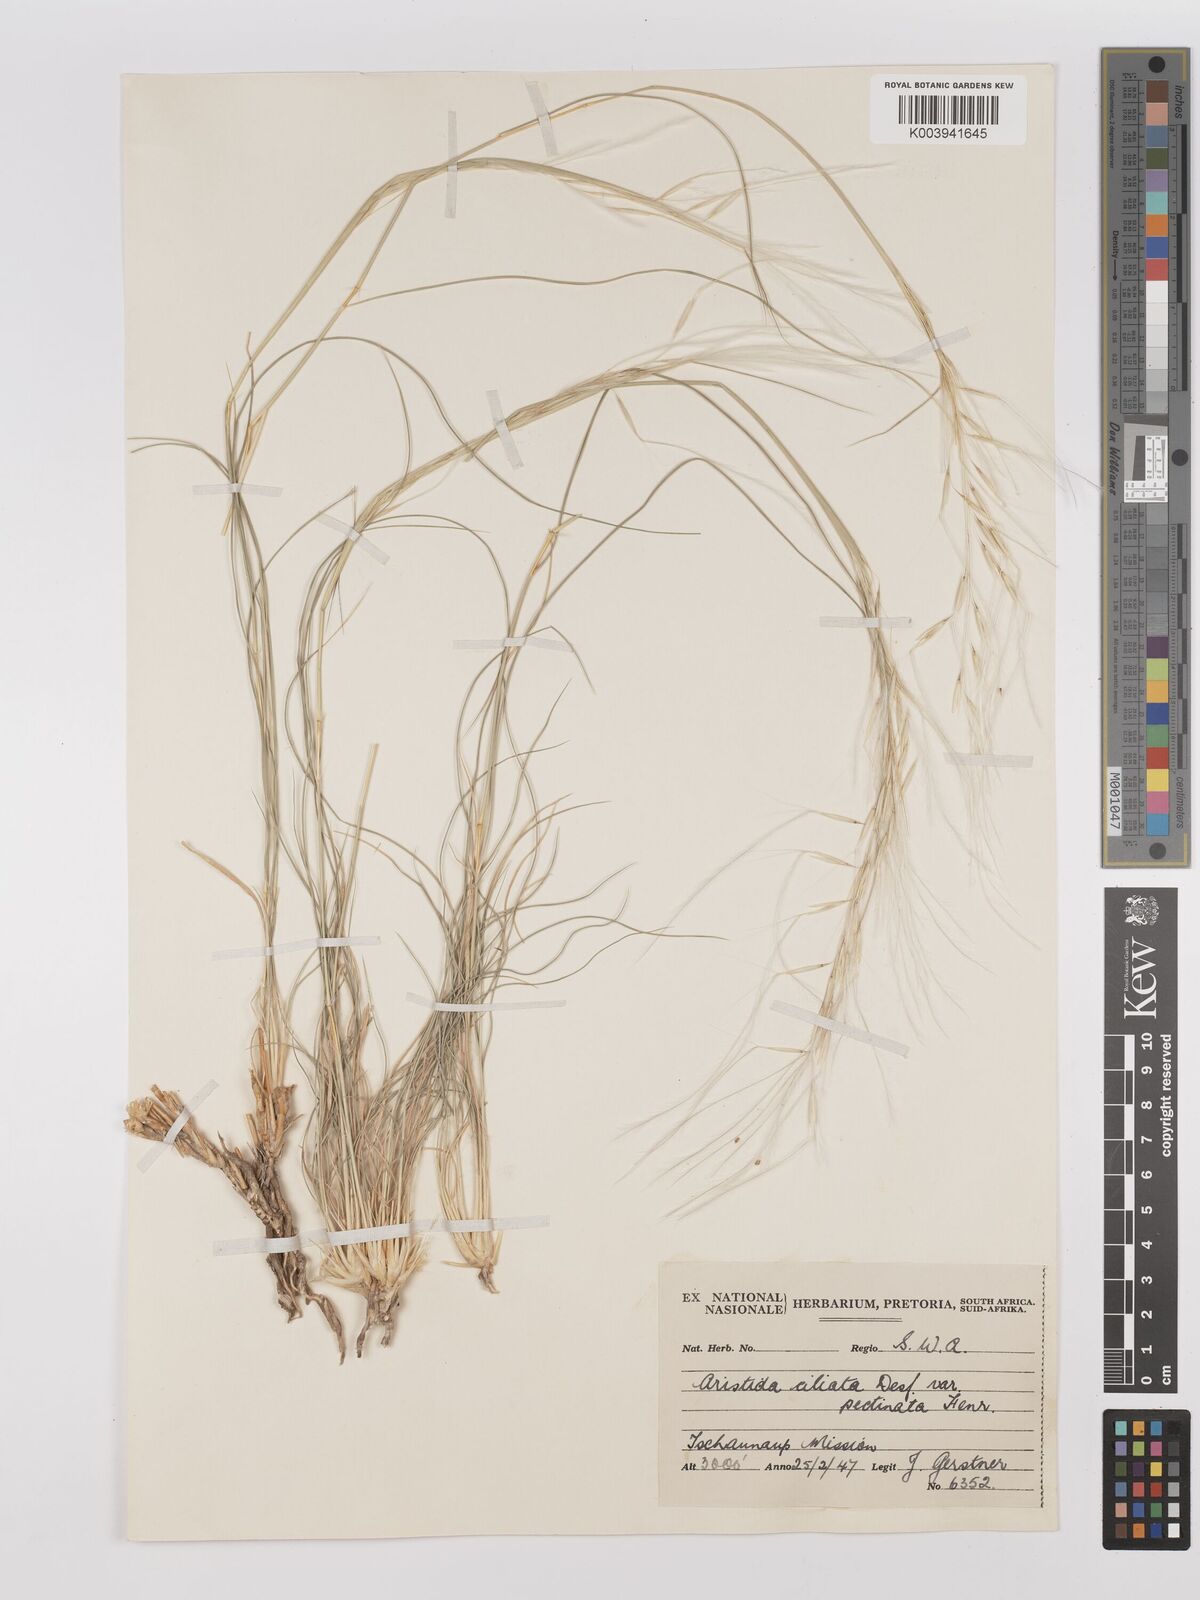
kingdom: Plantae
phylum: Tracheophyta
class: Liliopsida
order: Poales
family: Poaceae
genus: Stipagrostis
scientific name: Stipagrostis ciliata
